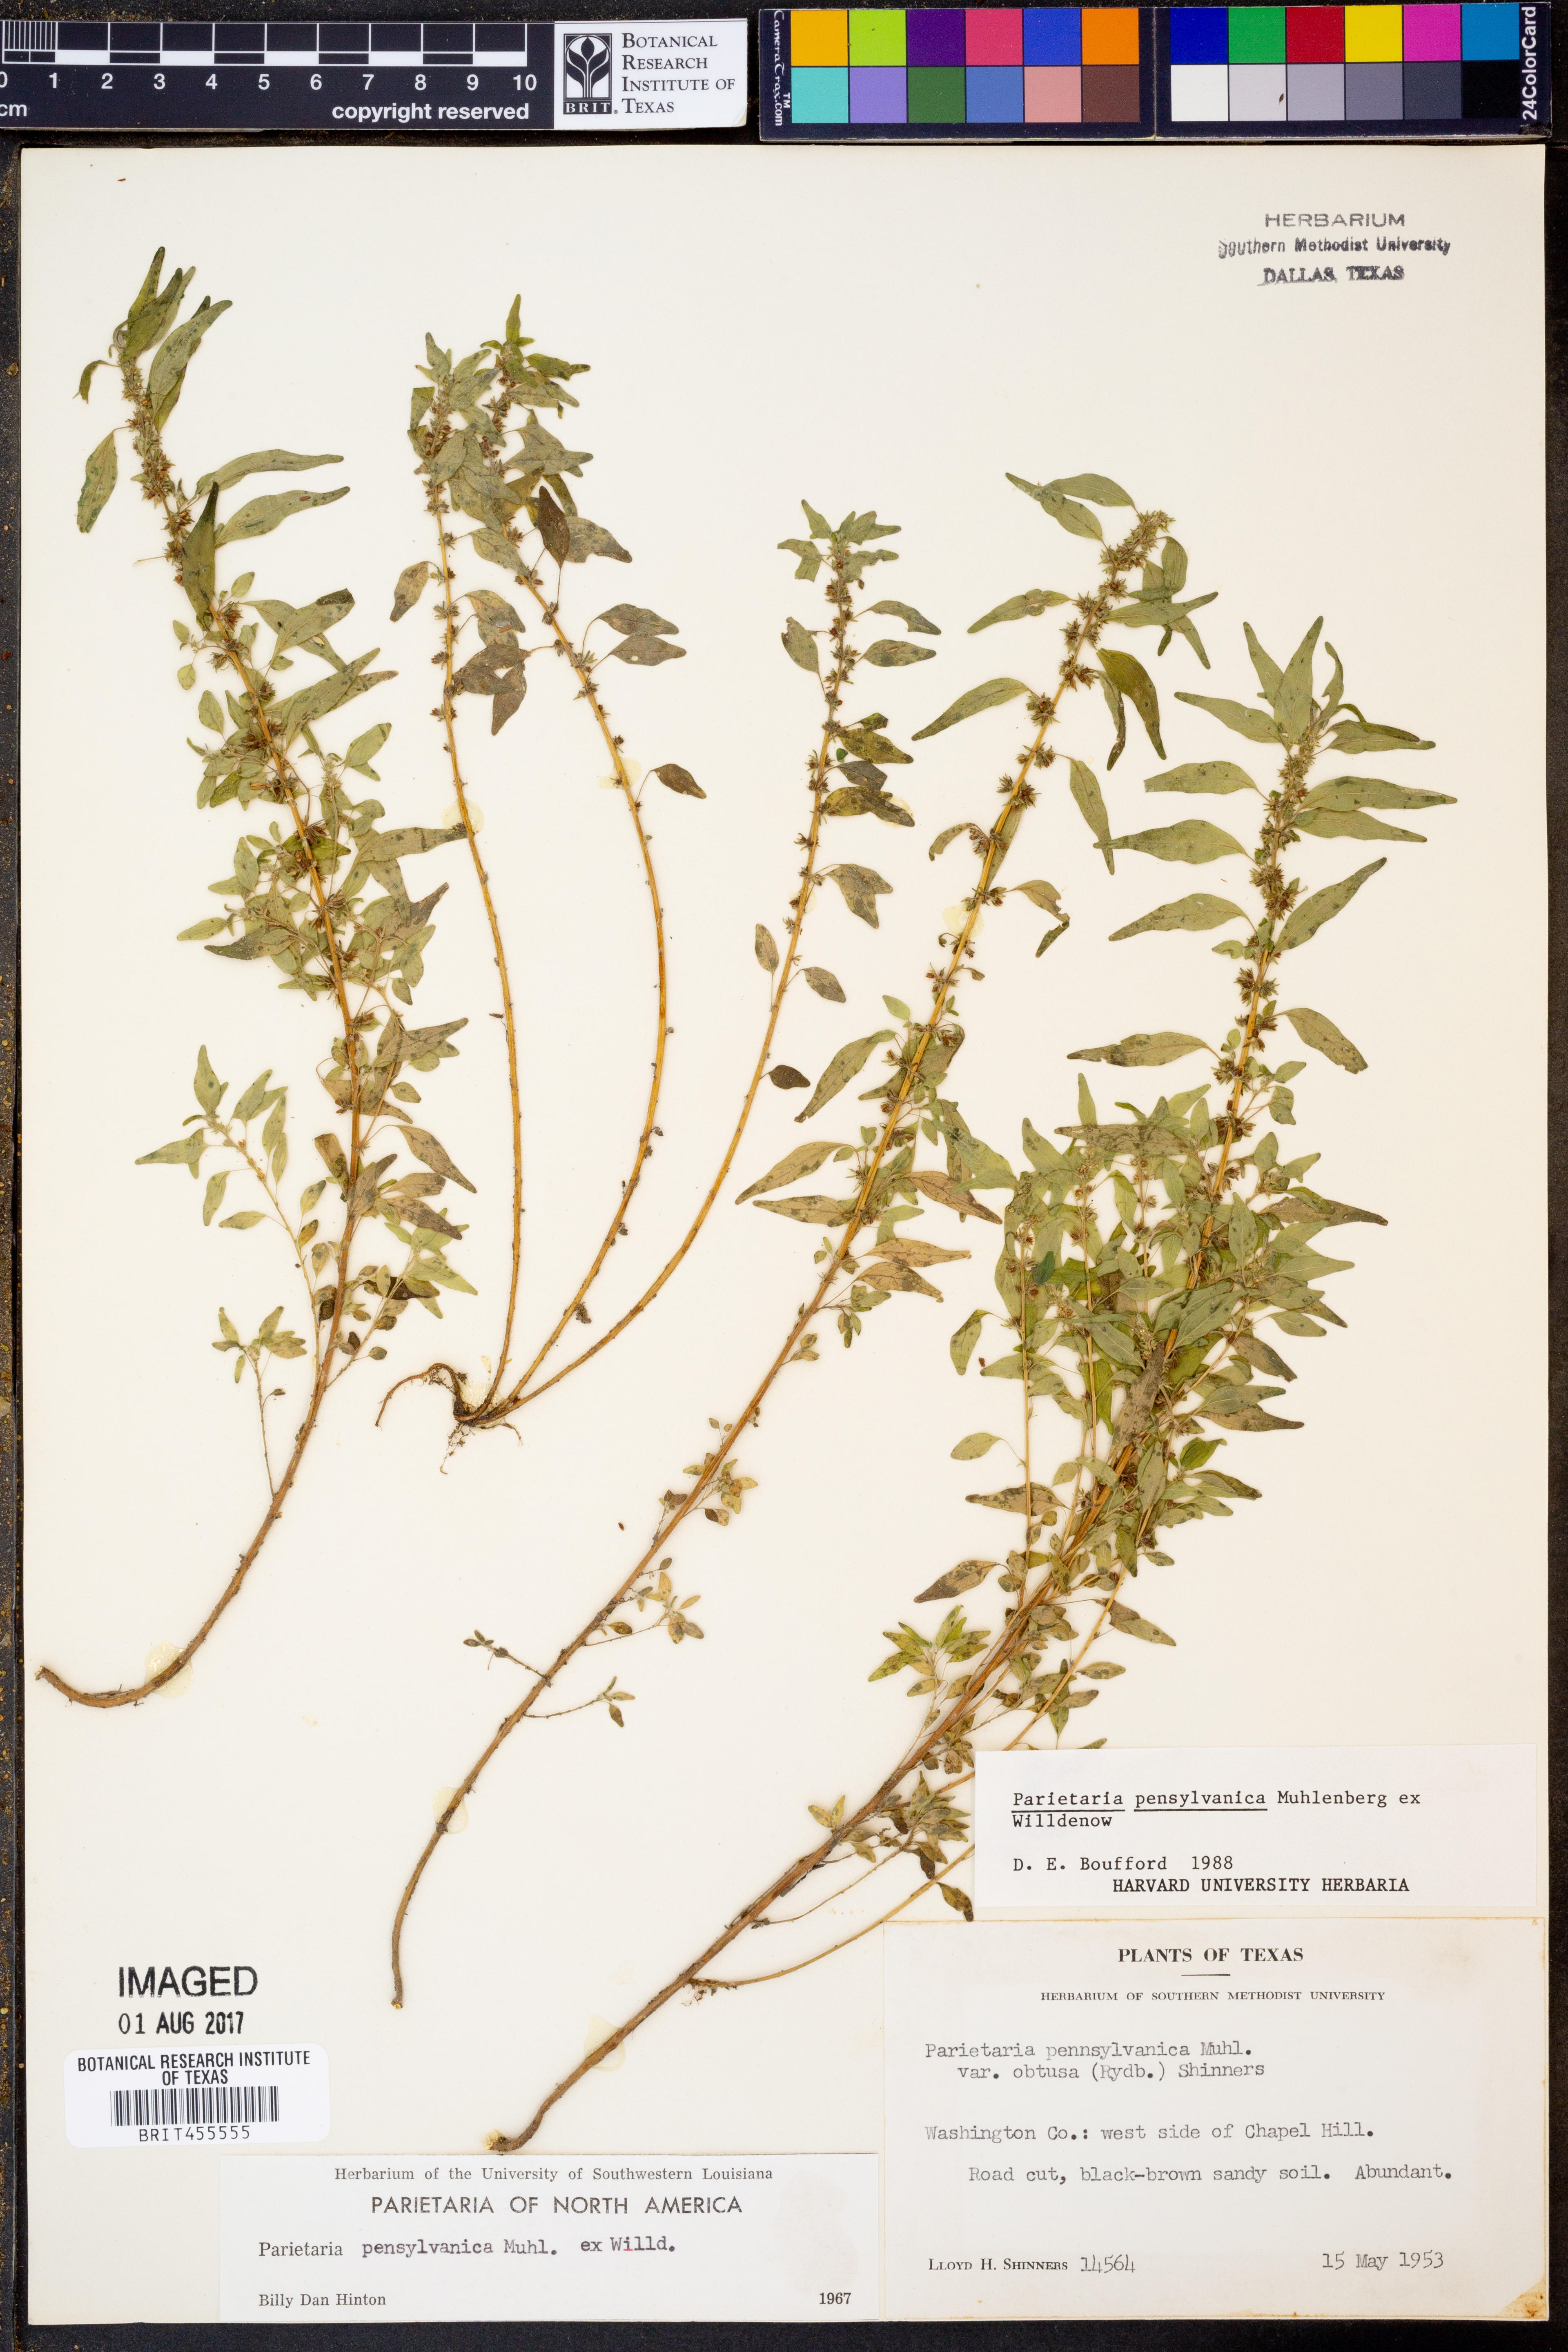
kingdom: Plantae
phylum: Tracheophyta
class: Magnoliopsida
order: Rosales
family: Urticaceae
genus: Parietaria
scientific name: Parietaria pensylvanica
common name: Pennsylvania pellitory
